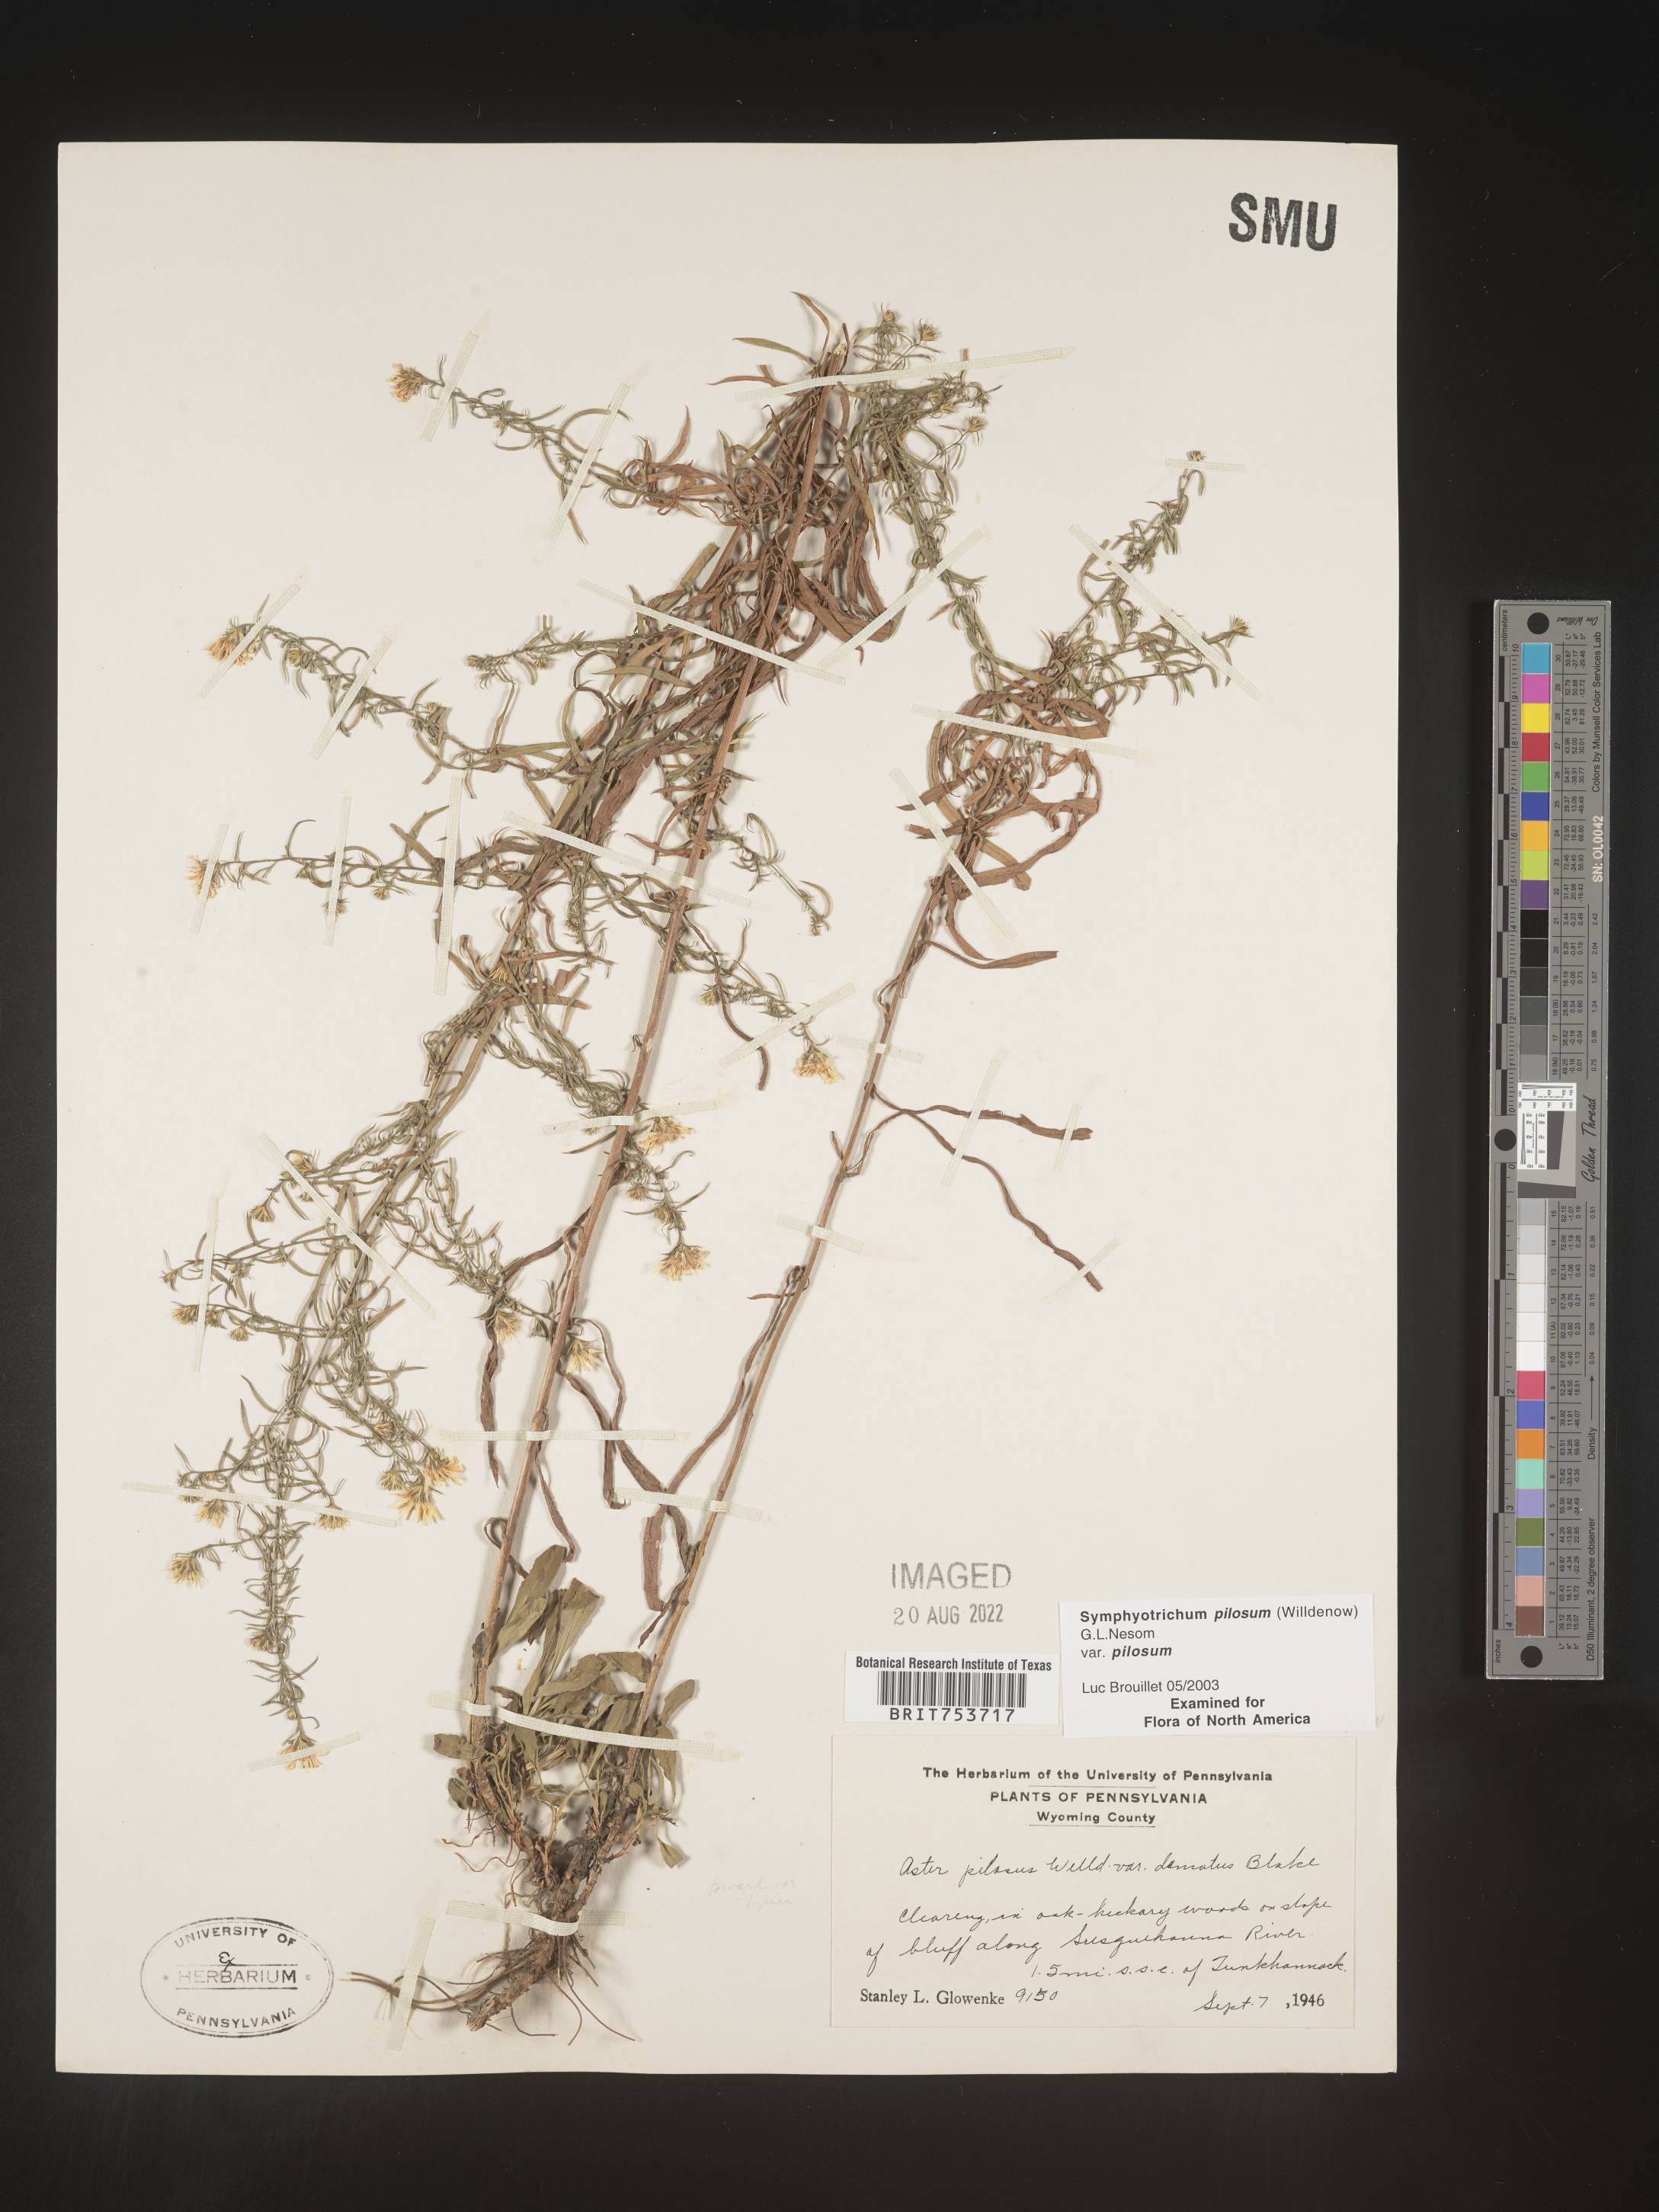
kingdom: Plantae
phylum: Tracheophyta
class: Magnoliopsida
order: Asterales
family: Asteraceae
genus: Symphyotrichum
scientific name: Symphyotrichum pilosum
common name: Awl aster
